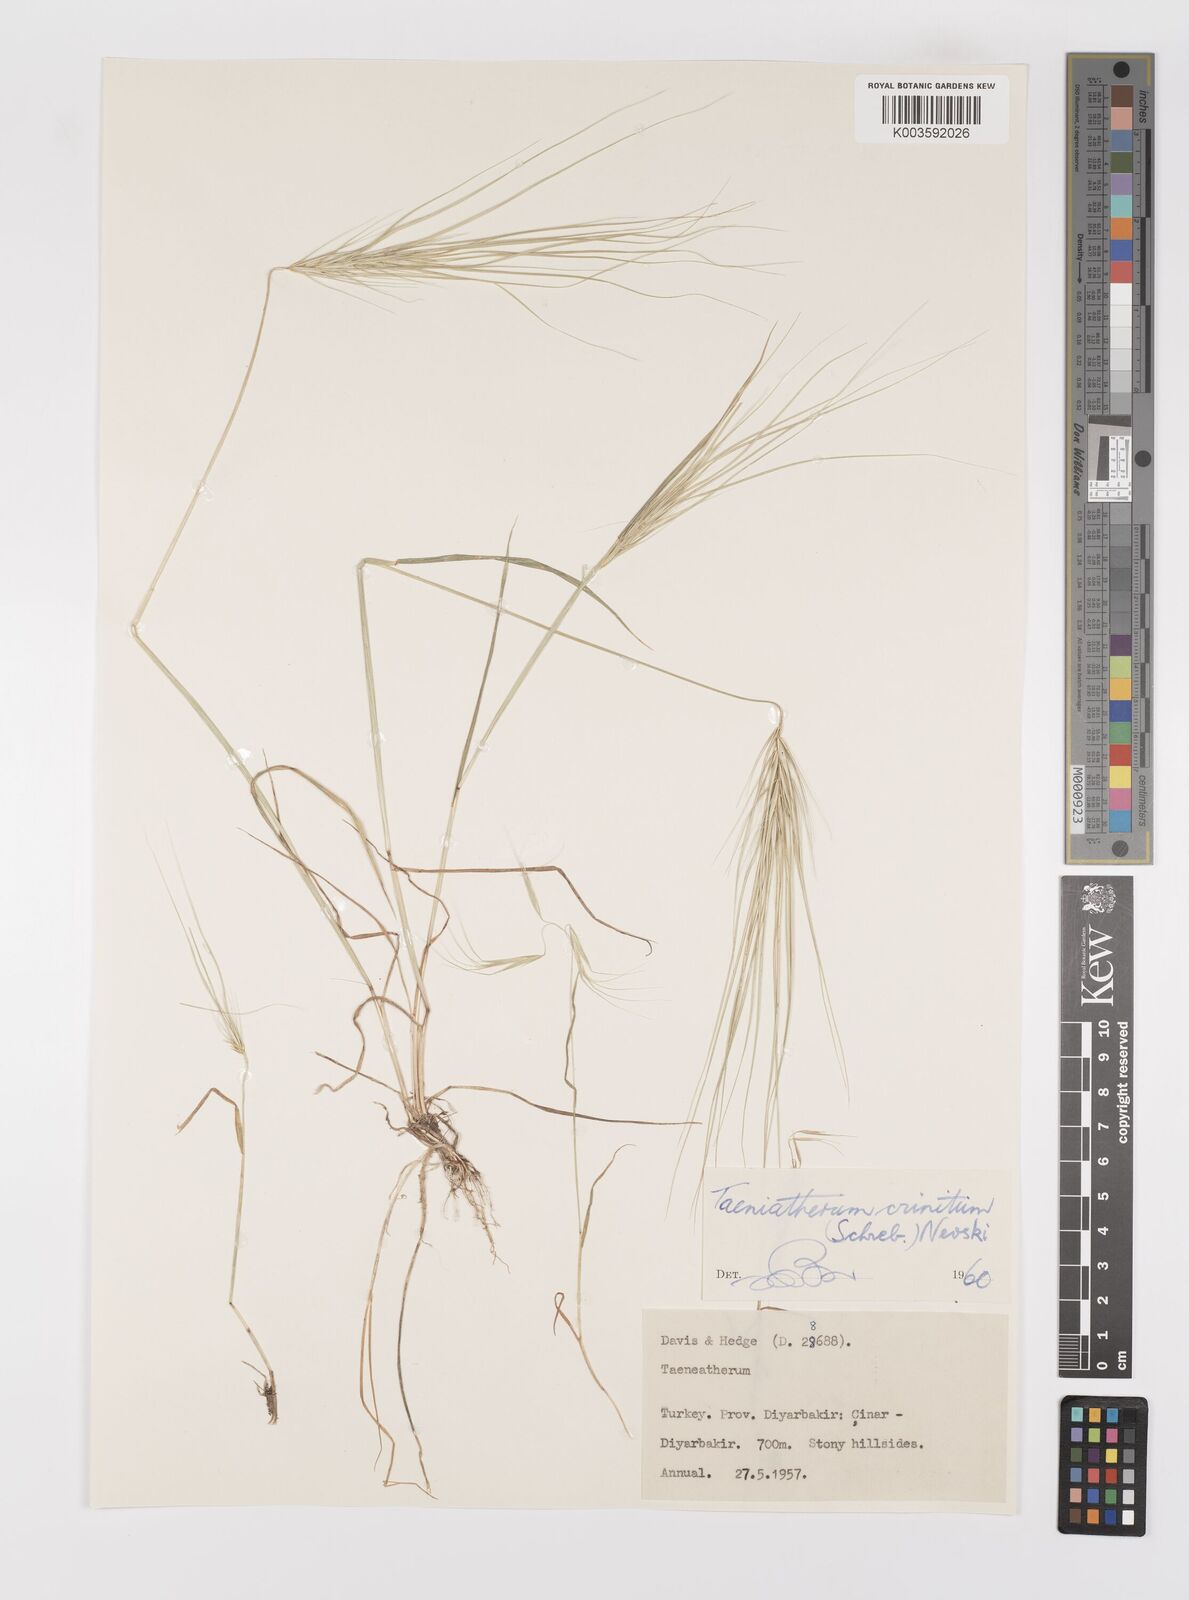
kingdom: Plantae
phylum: Tracheophyta
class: Liliopsida
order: Poales
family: Poaceae
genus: Taeniatherum
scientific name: Taeniatherum caput-medusae
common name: Medusahead
